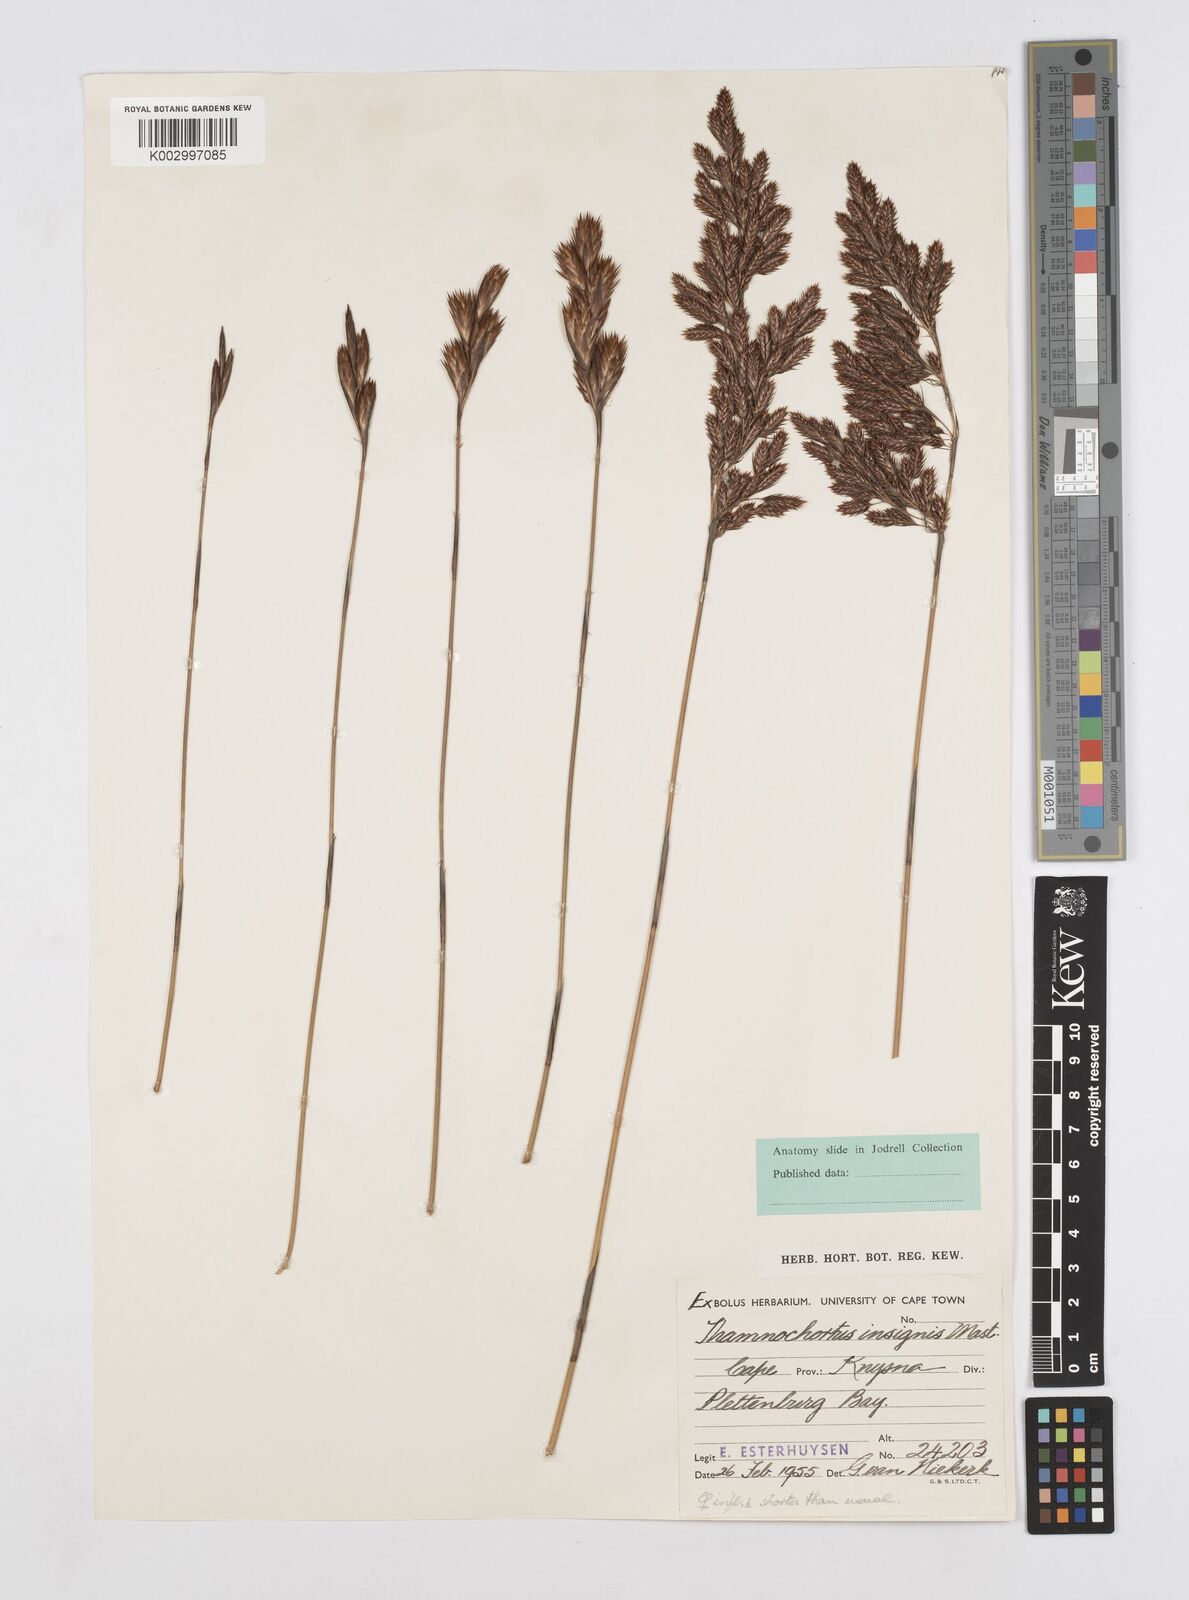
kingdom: Plantae
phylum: Tracheophyta
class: Liliopsida
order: Poales
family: Restionaceae
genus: Thamnochortus
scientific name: Thamnochortus insignis
